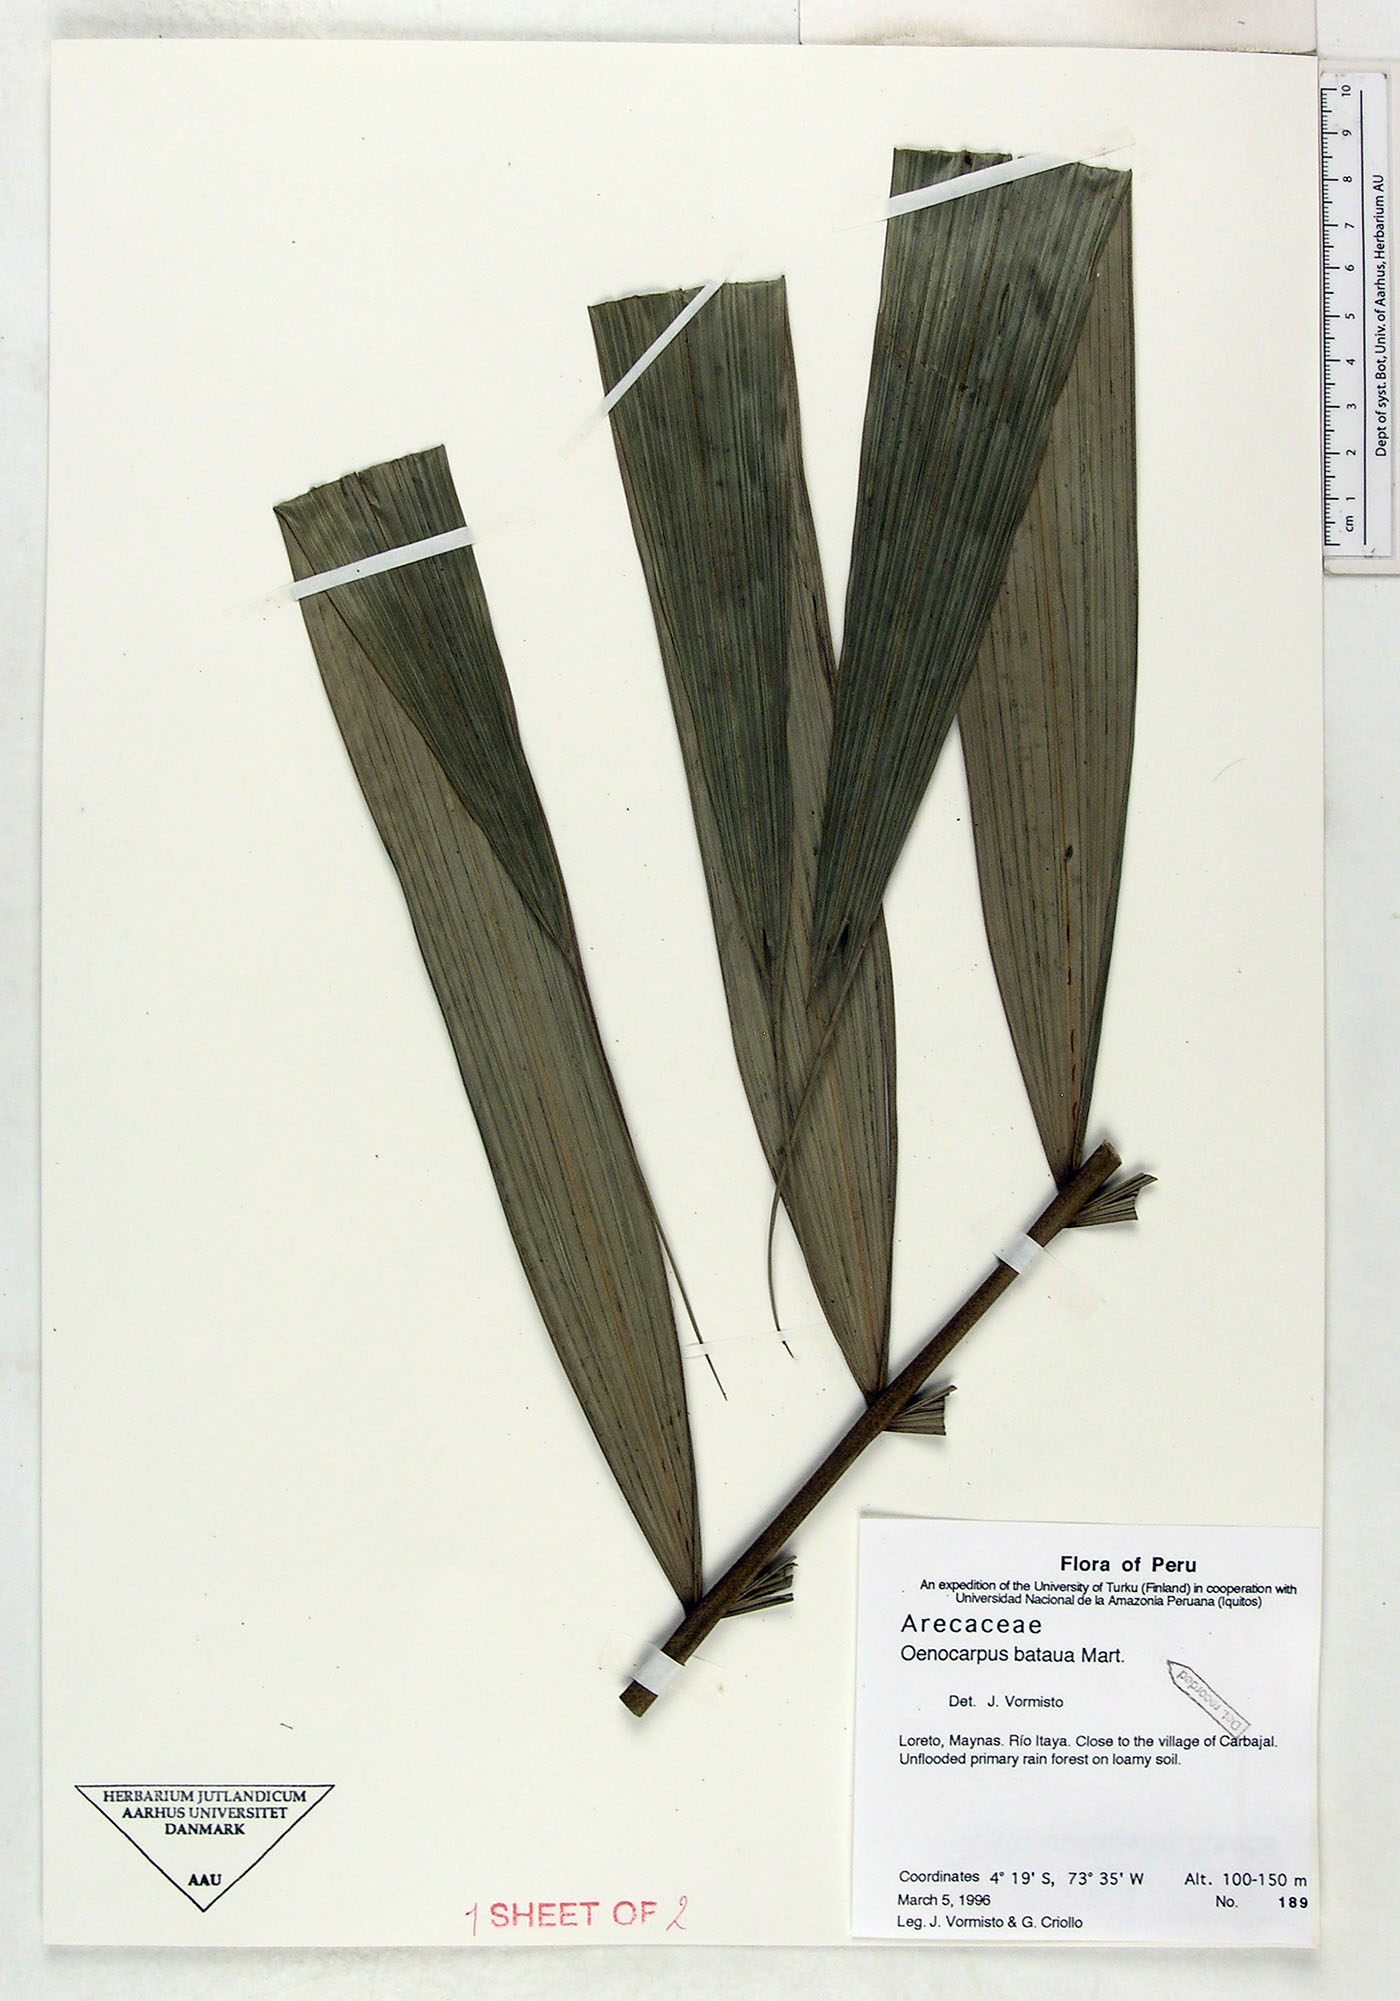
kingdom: Plantae
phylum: Tracheophyta
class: Liliopsida
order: Arecales
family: Arecaceae
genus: Oenocarpus
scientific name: Oenocarpus bataua
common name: Bataua palm
